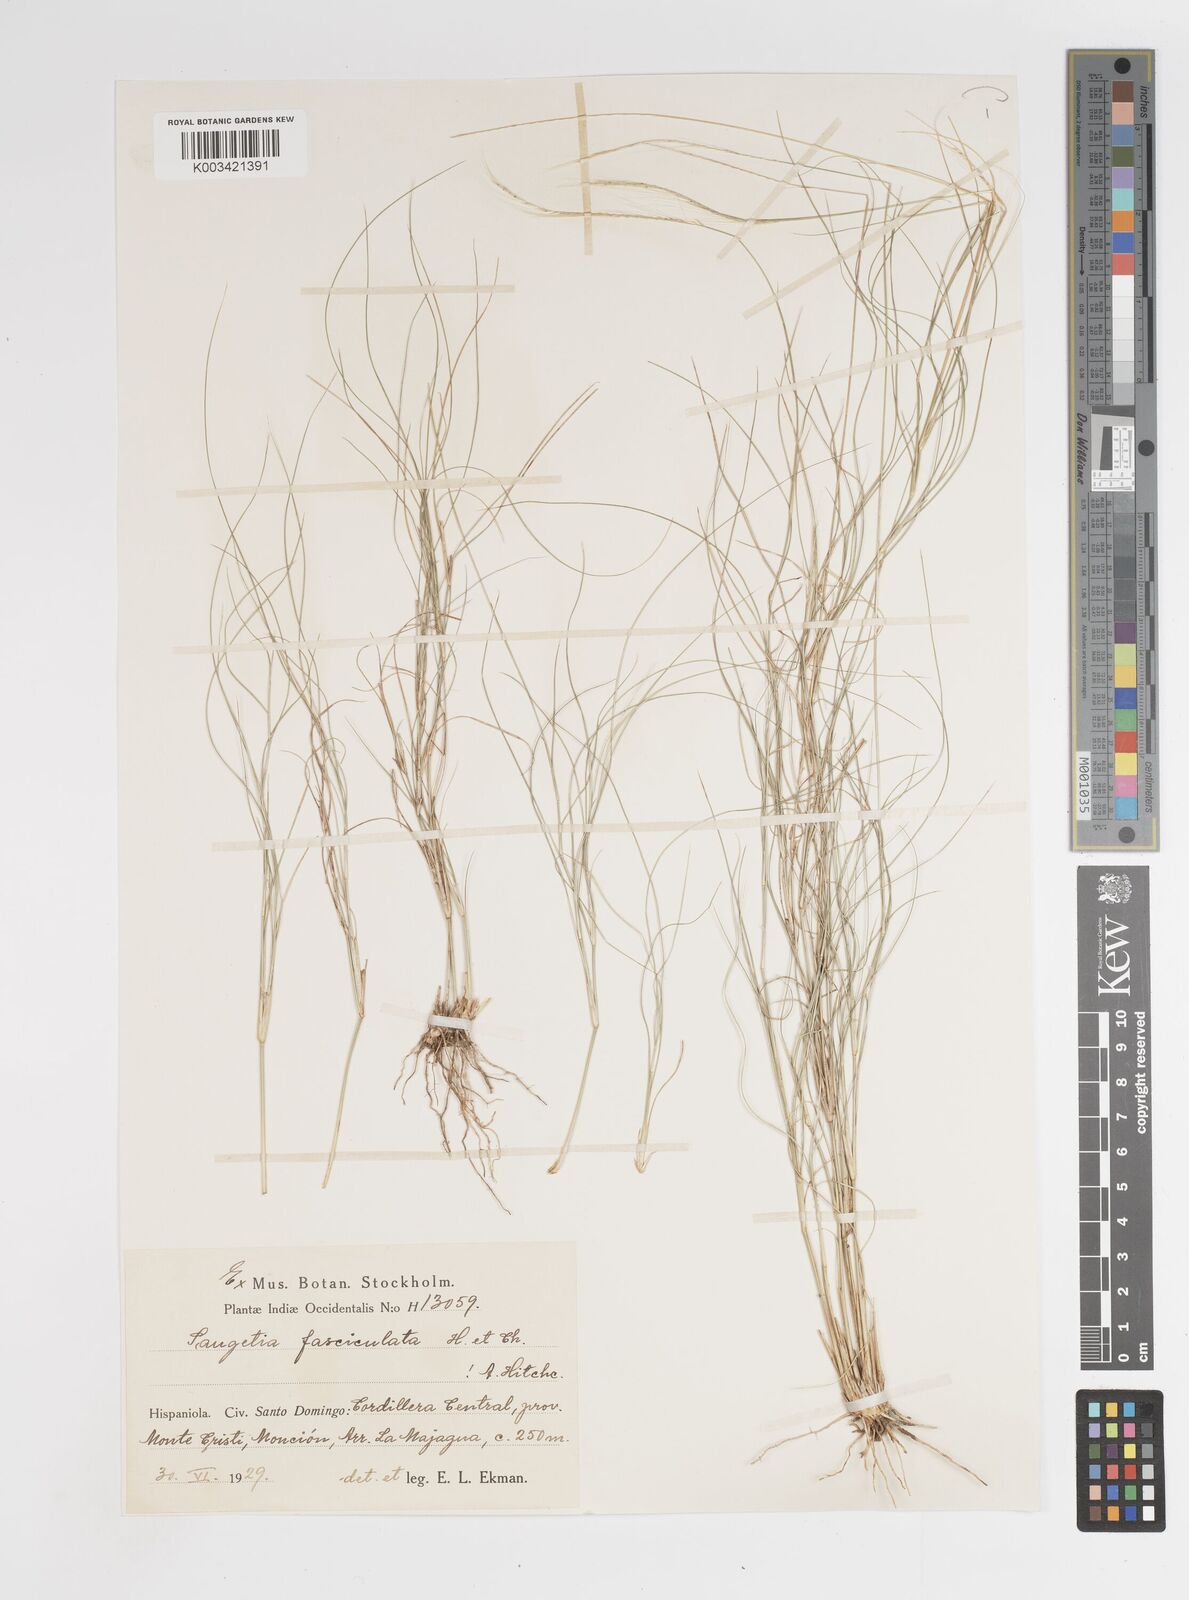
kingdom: Plantae
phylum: Tracheophyta
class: Liliopsida
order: Poales
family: Poaceae
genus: Enteropogon
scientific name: Enteropogon
